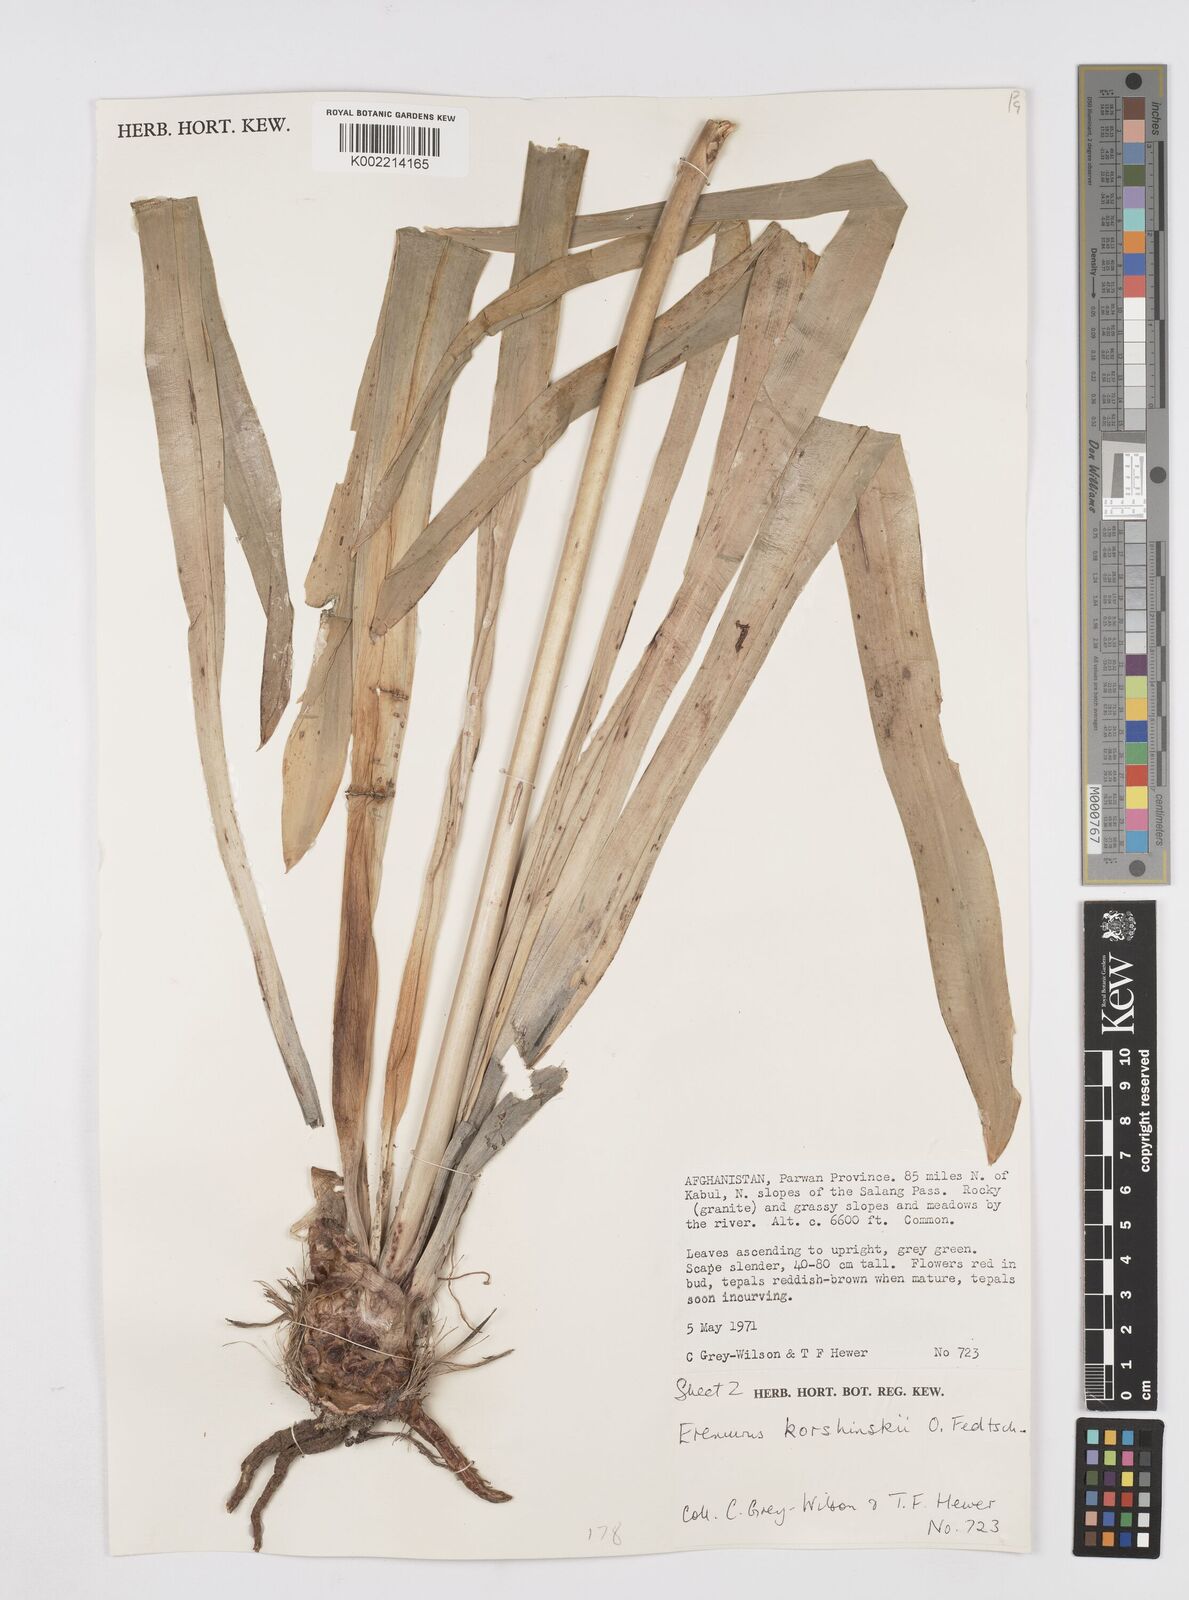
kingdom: Plantae
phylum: Tracheophyta
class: Liliopsida
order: Asparagales
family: Asphodelaceae
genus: Eremurus
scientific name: Eremurus korshinskyi
